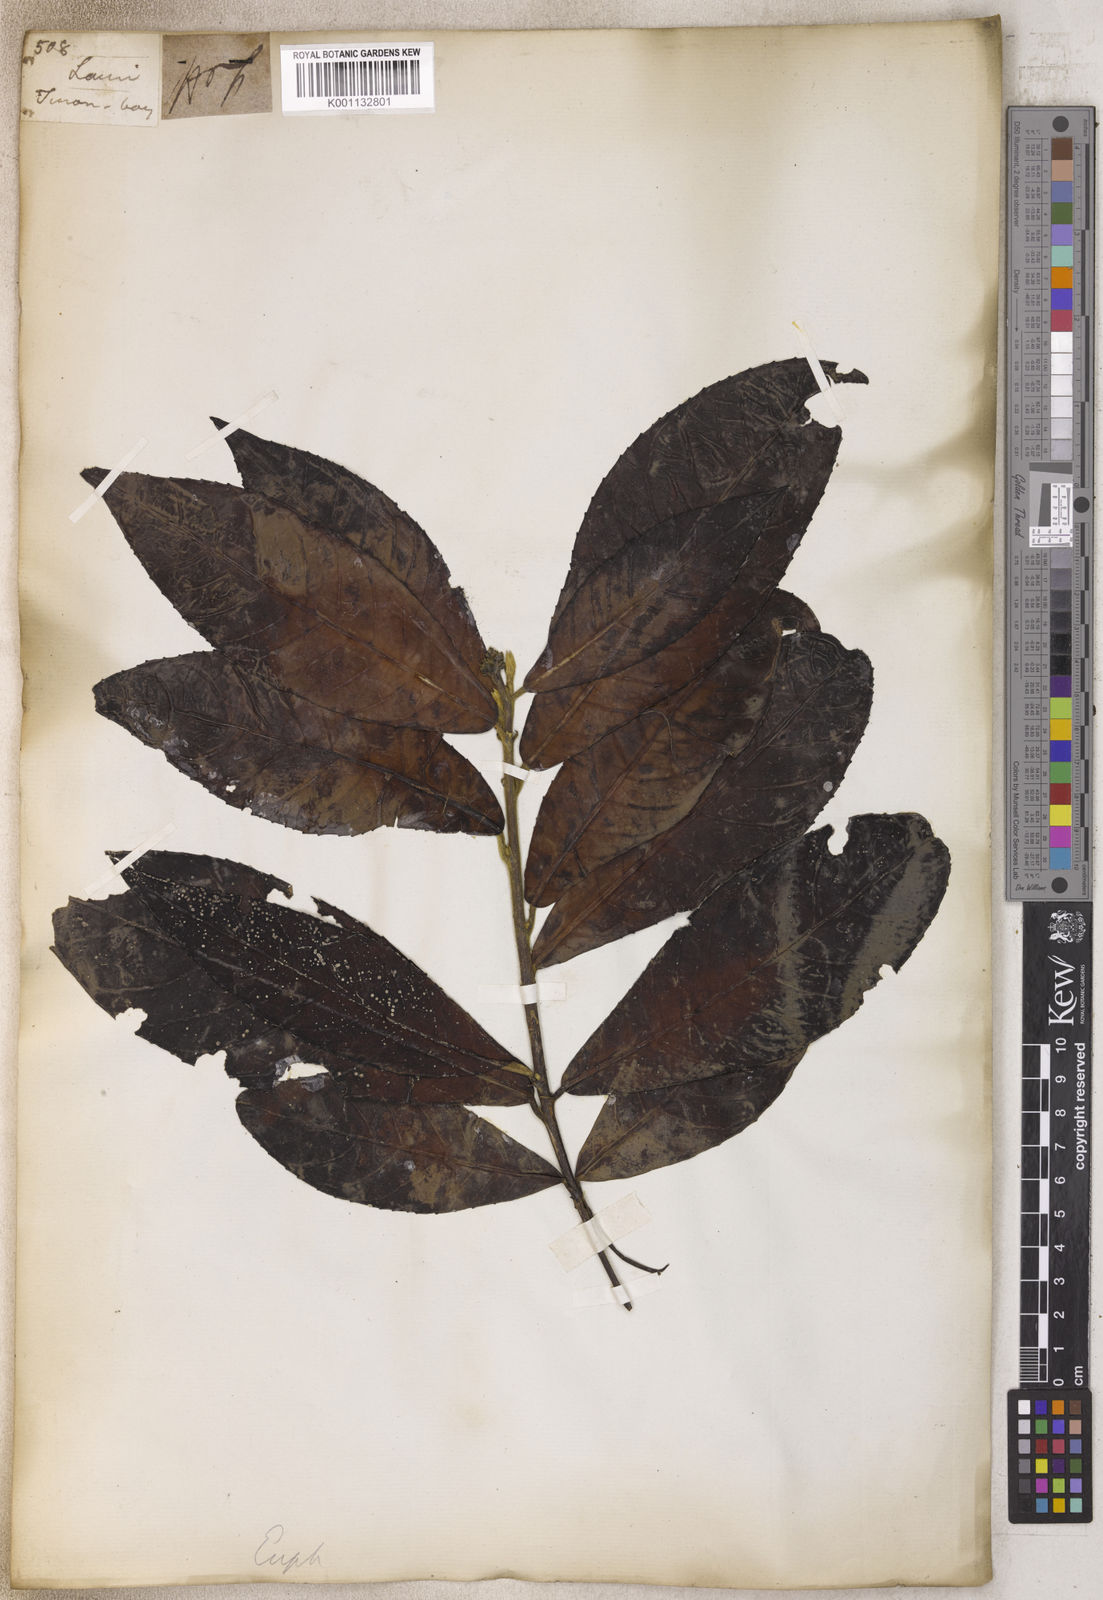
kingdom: Plantae
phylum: Tracheophyta
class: Magnoliopsida
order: Malpighiales
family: Euphorbiaceae
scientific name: Euphorbiaceae
